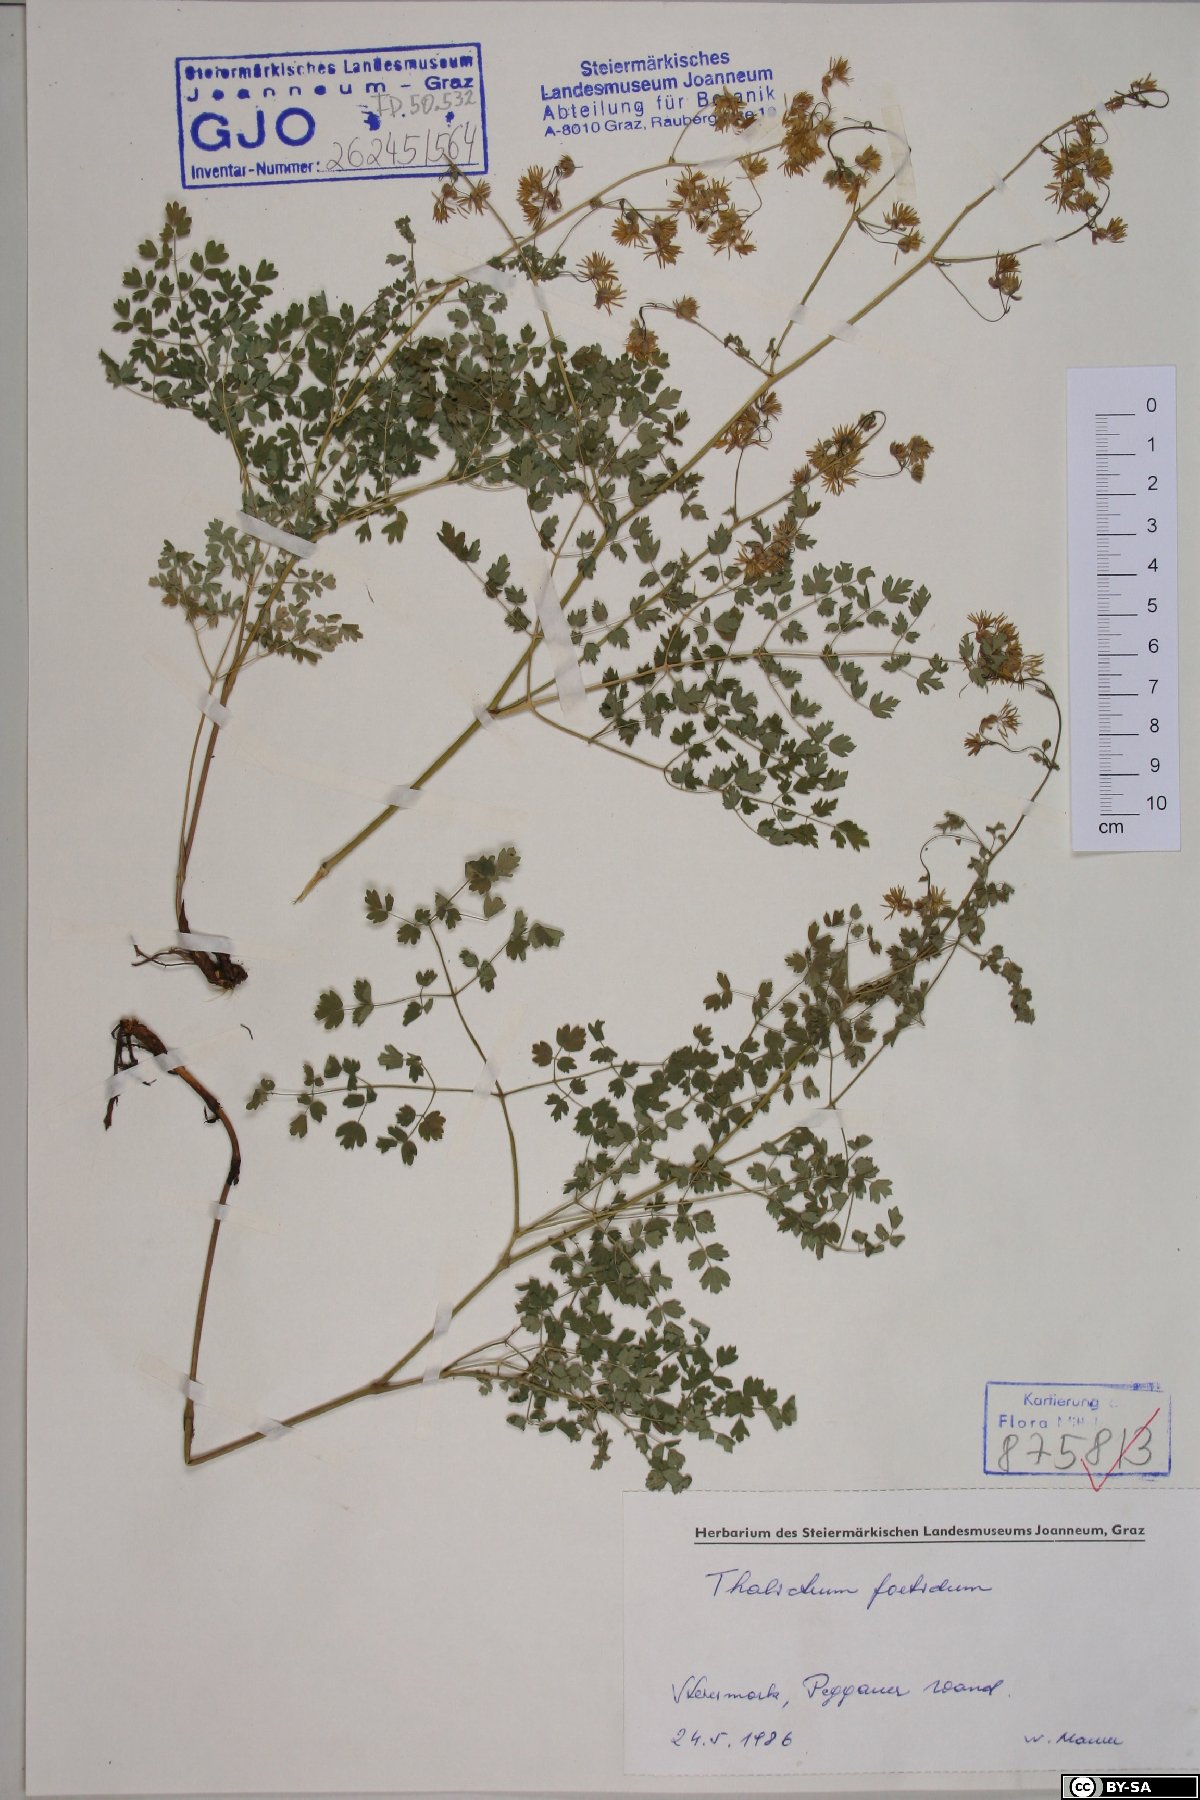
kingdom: Plantae
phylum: Tracheophyta
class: Magnoliopsida
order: Ranunculales
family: Ranunculaceae
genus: Thalictrum
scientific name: Thalictrum foetidum
